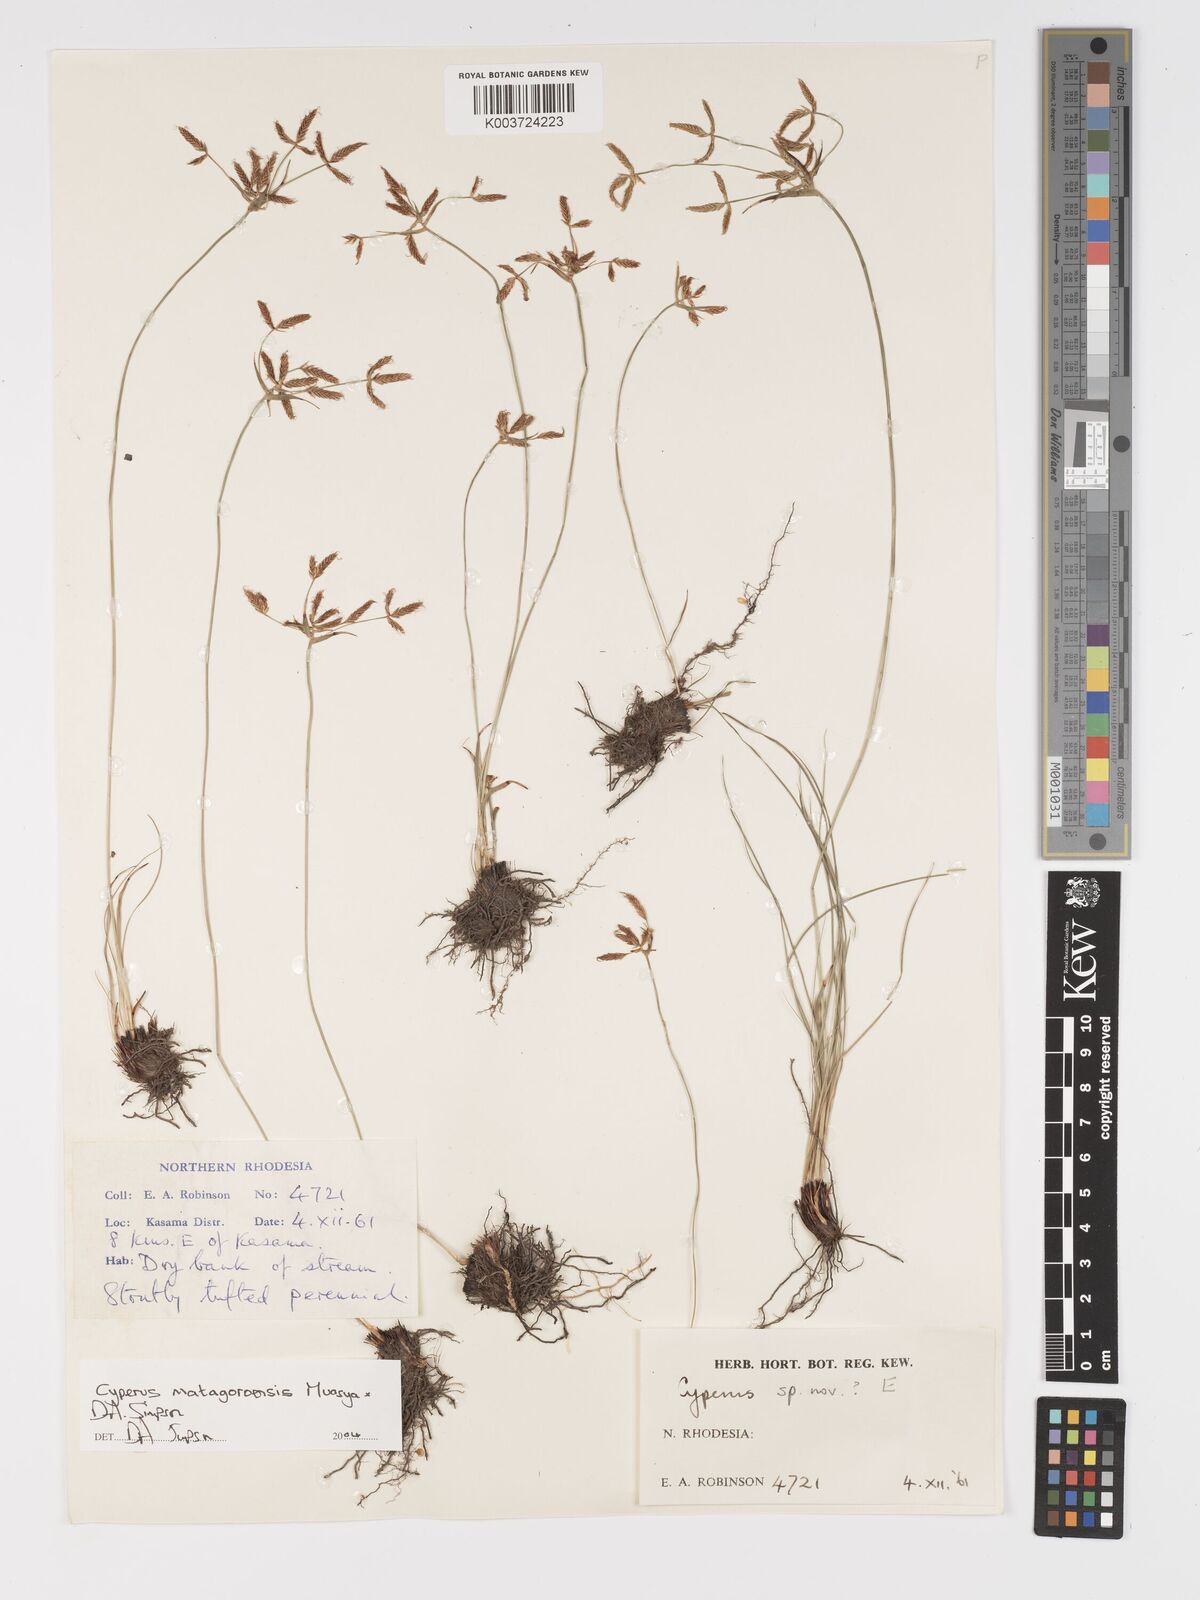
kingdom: Plantae
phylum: Tracheophyta
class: Liliopsida
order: Poales
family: Cyperaceae
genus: Cyperus
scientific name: Cyperus matagoroensis
